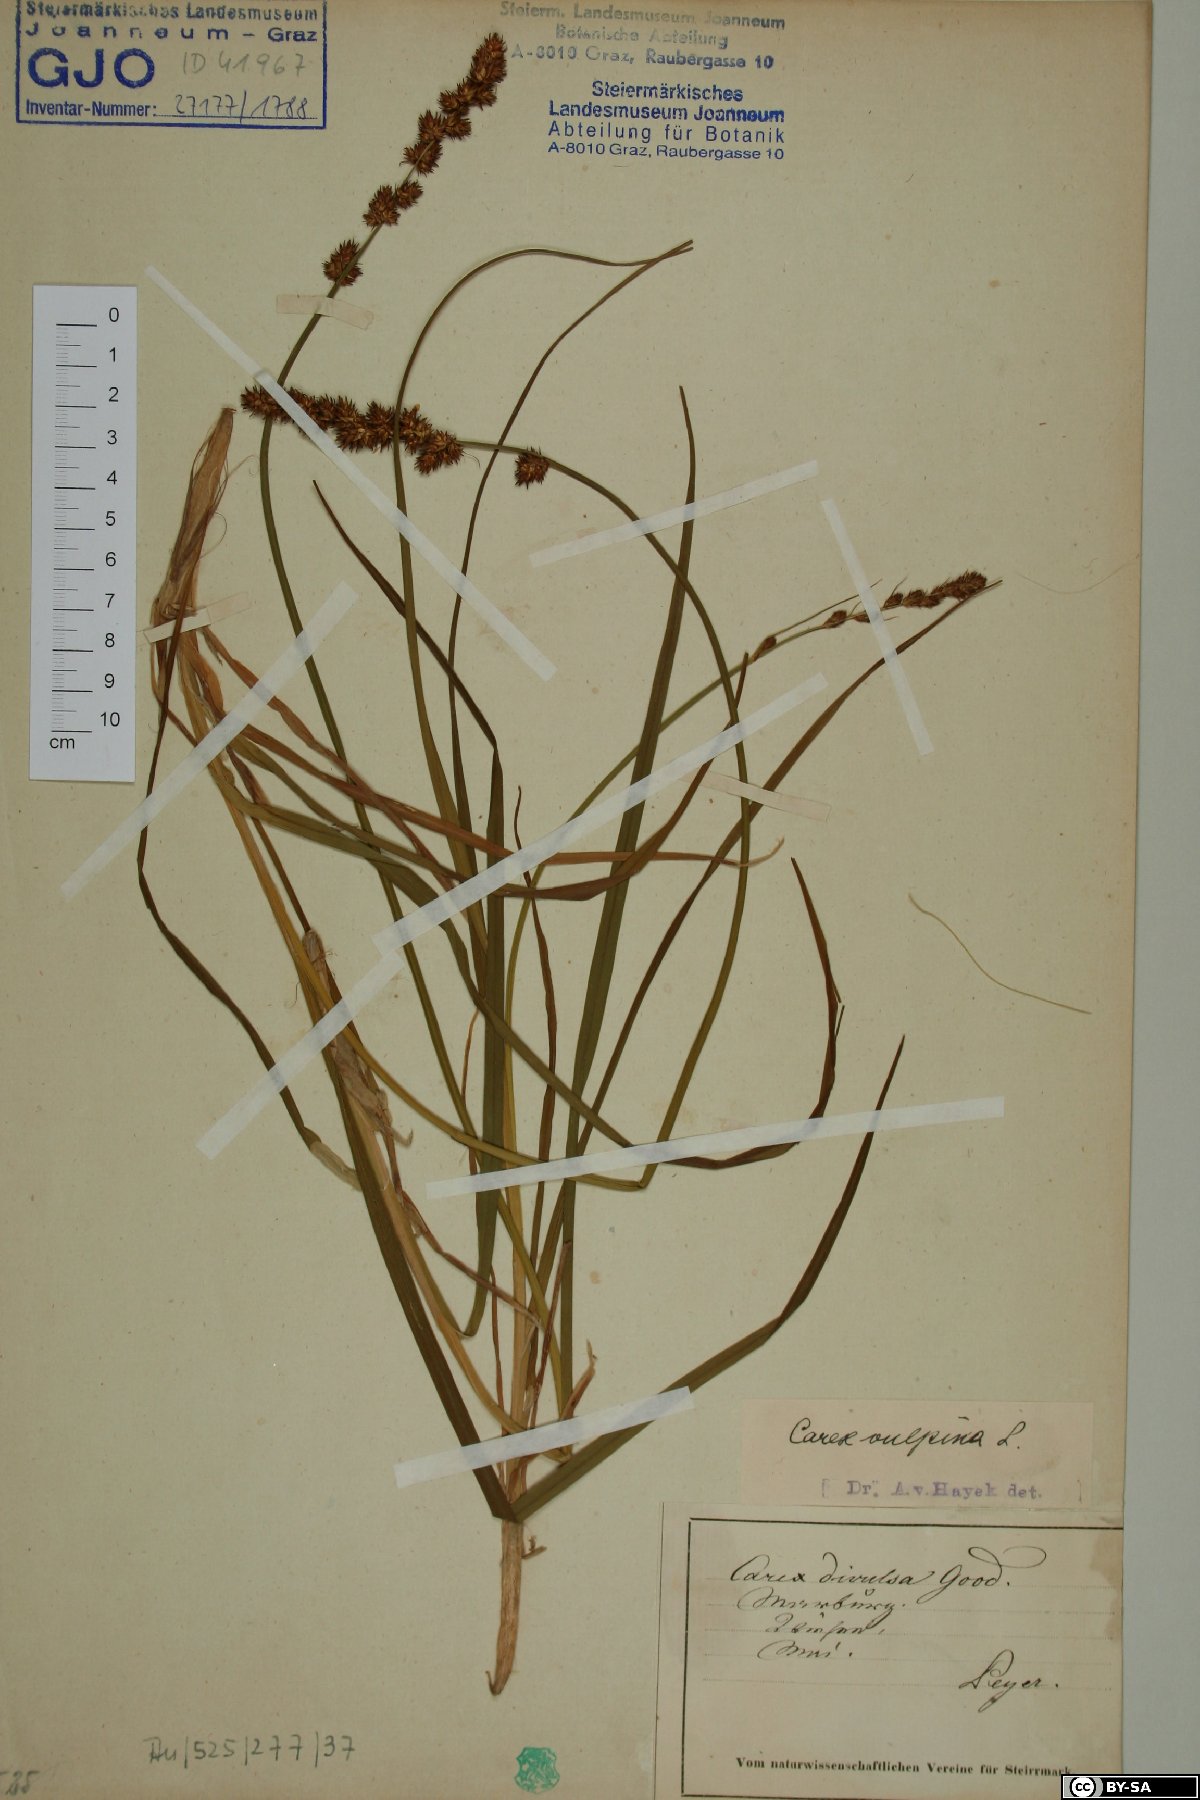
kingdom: Plantae
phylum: Tracheophyta
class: Liliopsida
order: Poales
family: Cyperaceae
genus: Carex
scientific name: Carex vulpina
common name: True fox-sedge
